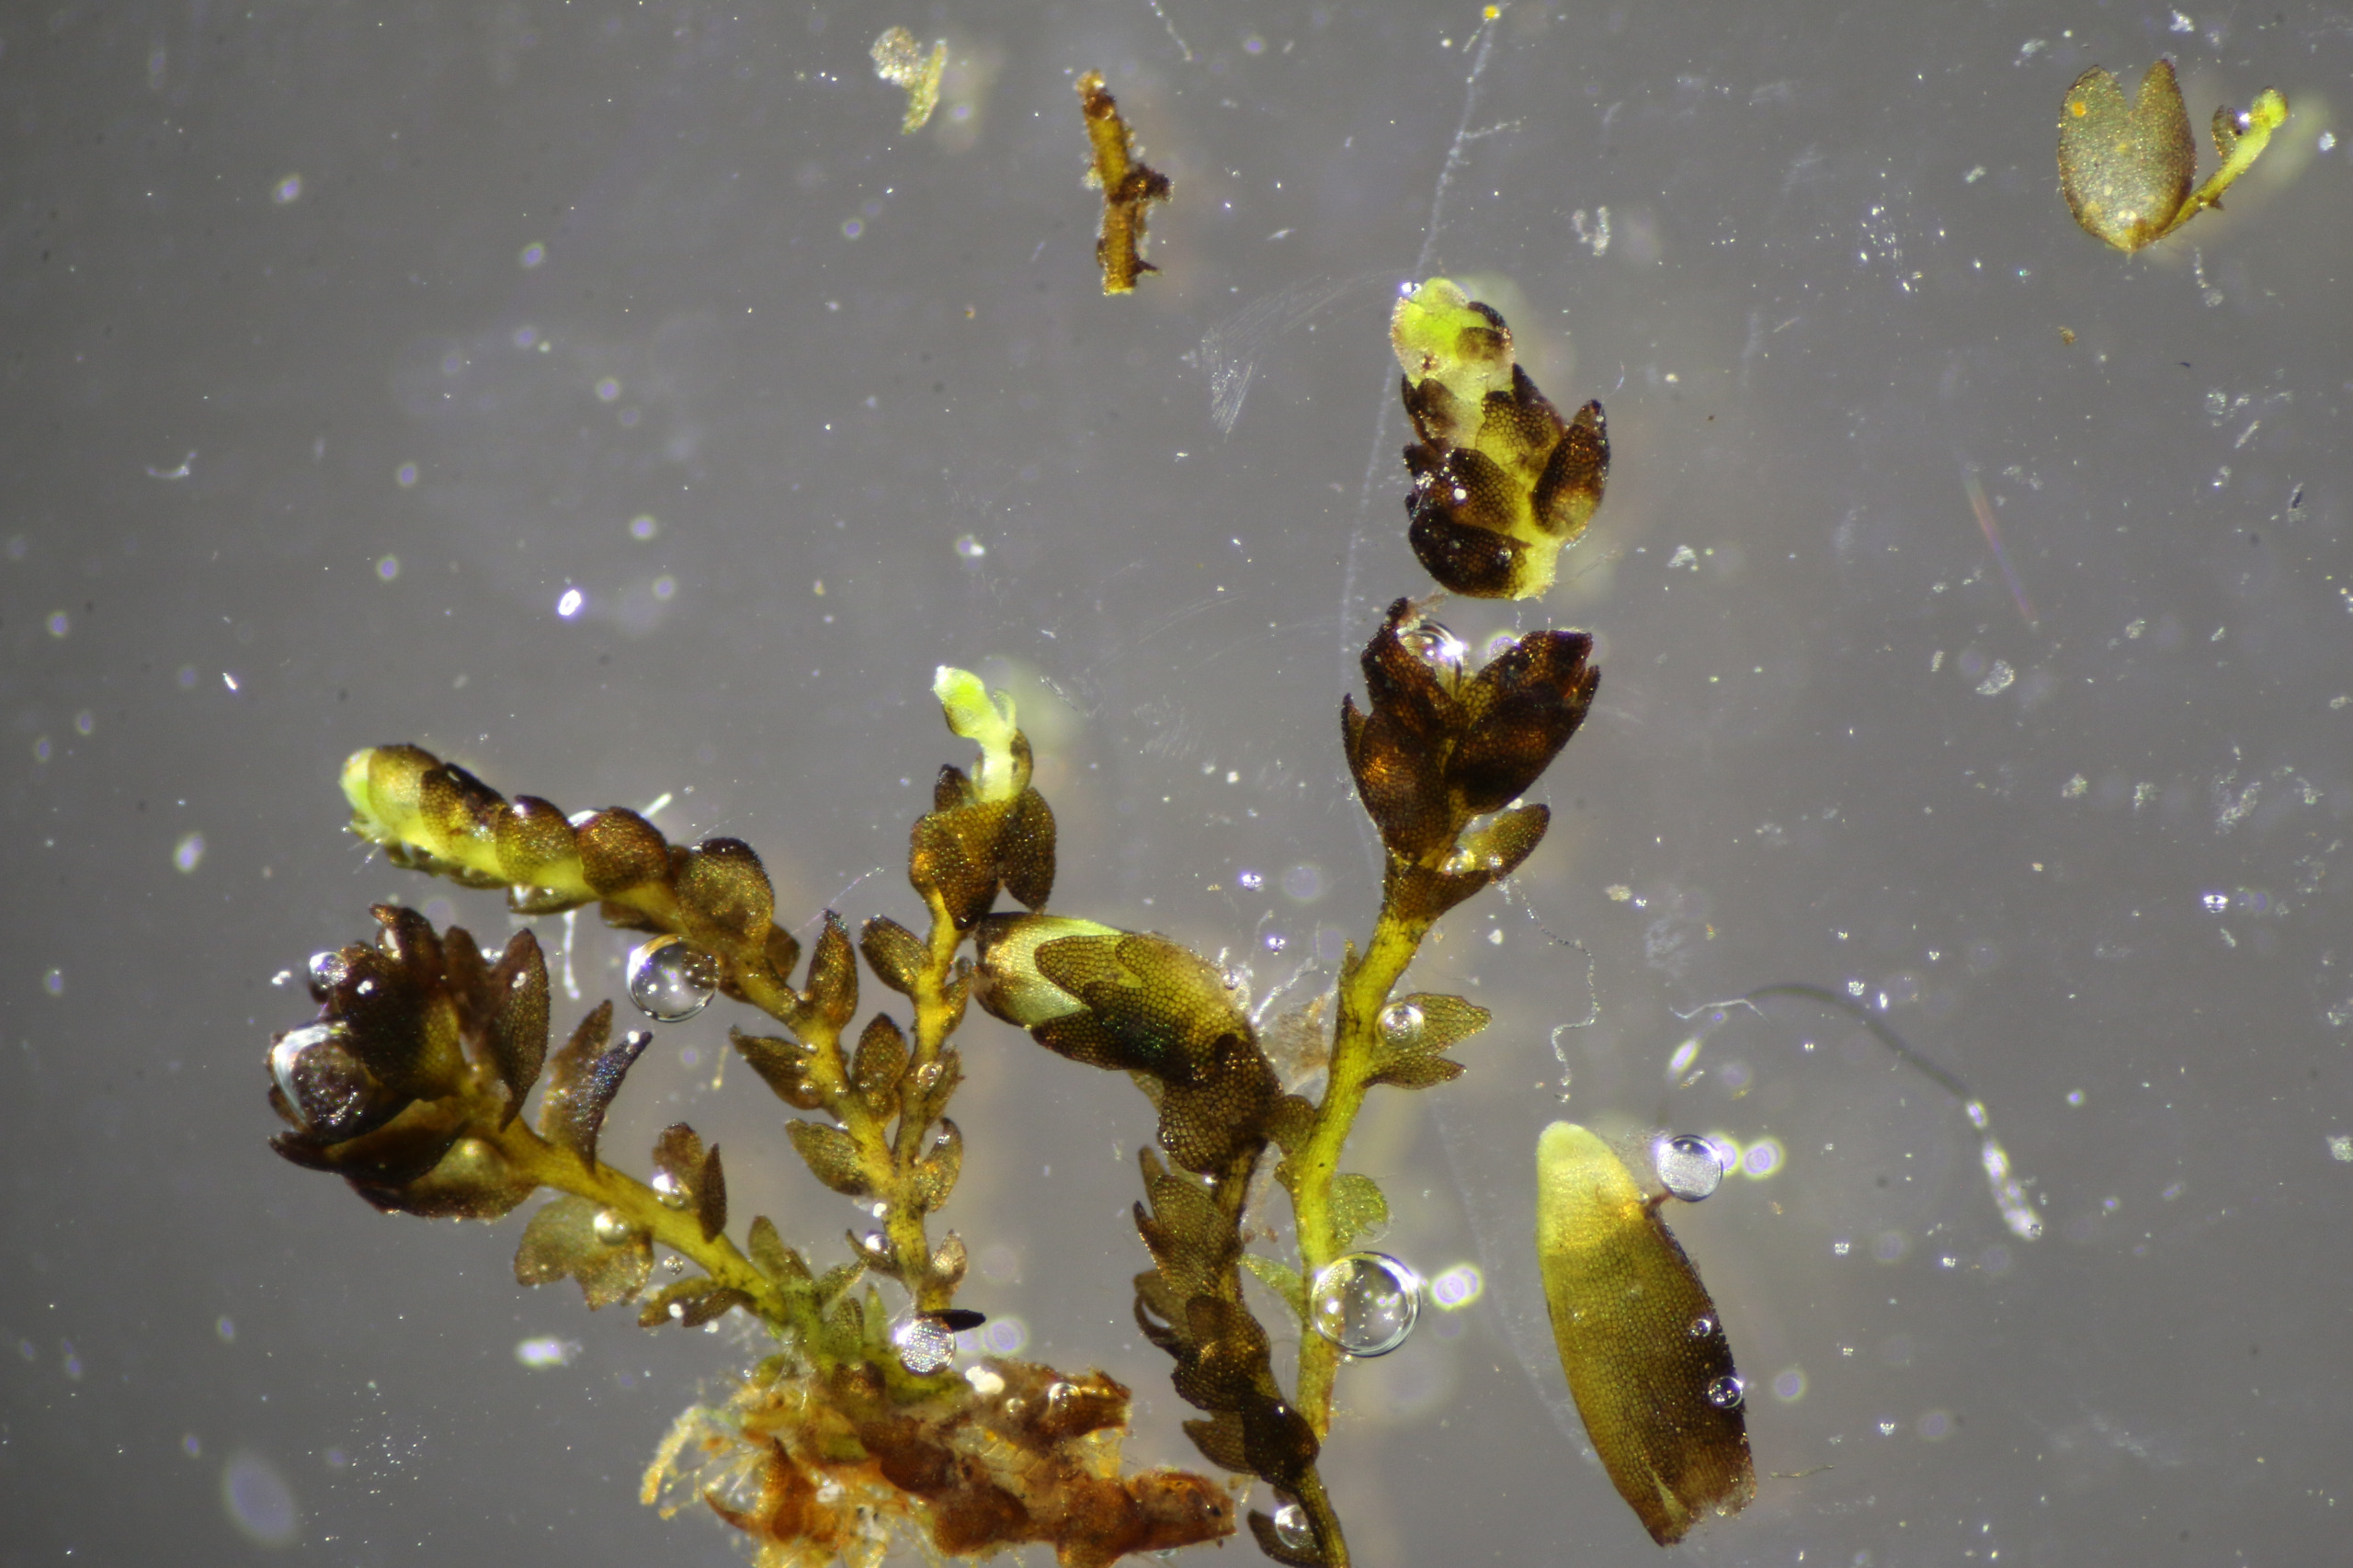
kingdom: Plantae
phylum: Marchantiophyta
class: Jungermanniopsida
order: Jungermanniales
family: Anastrophyllaceae
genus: Gymnocolea
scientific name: Gymnocolea inflata
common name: Opblæst blæremos
